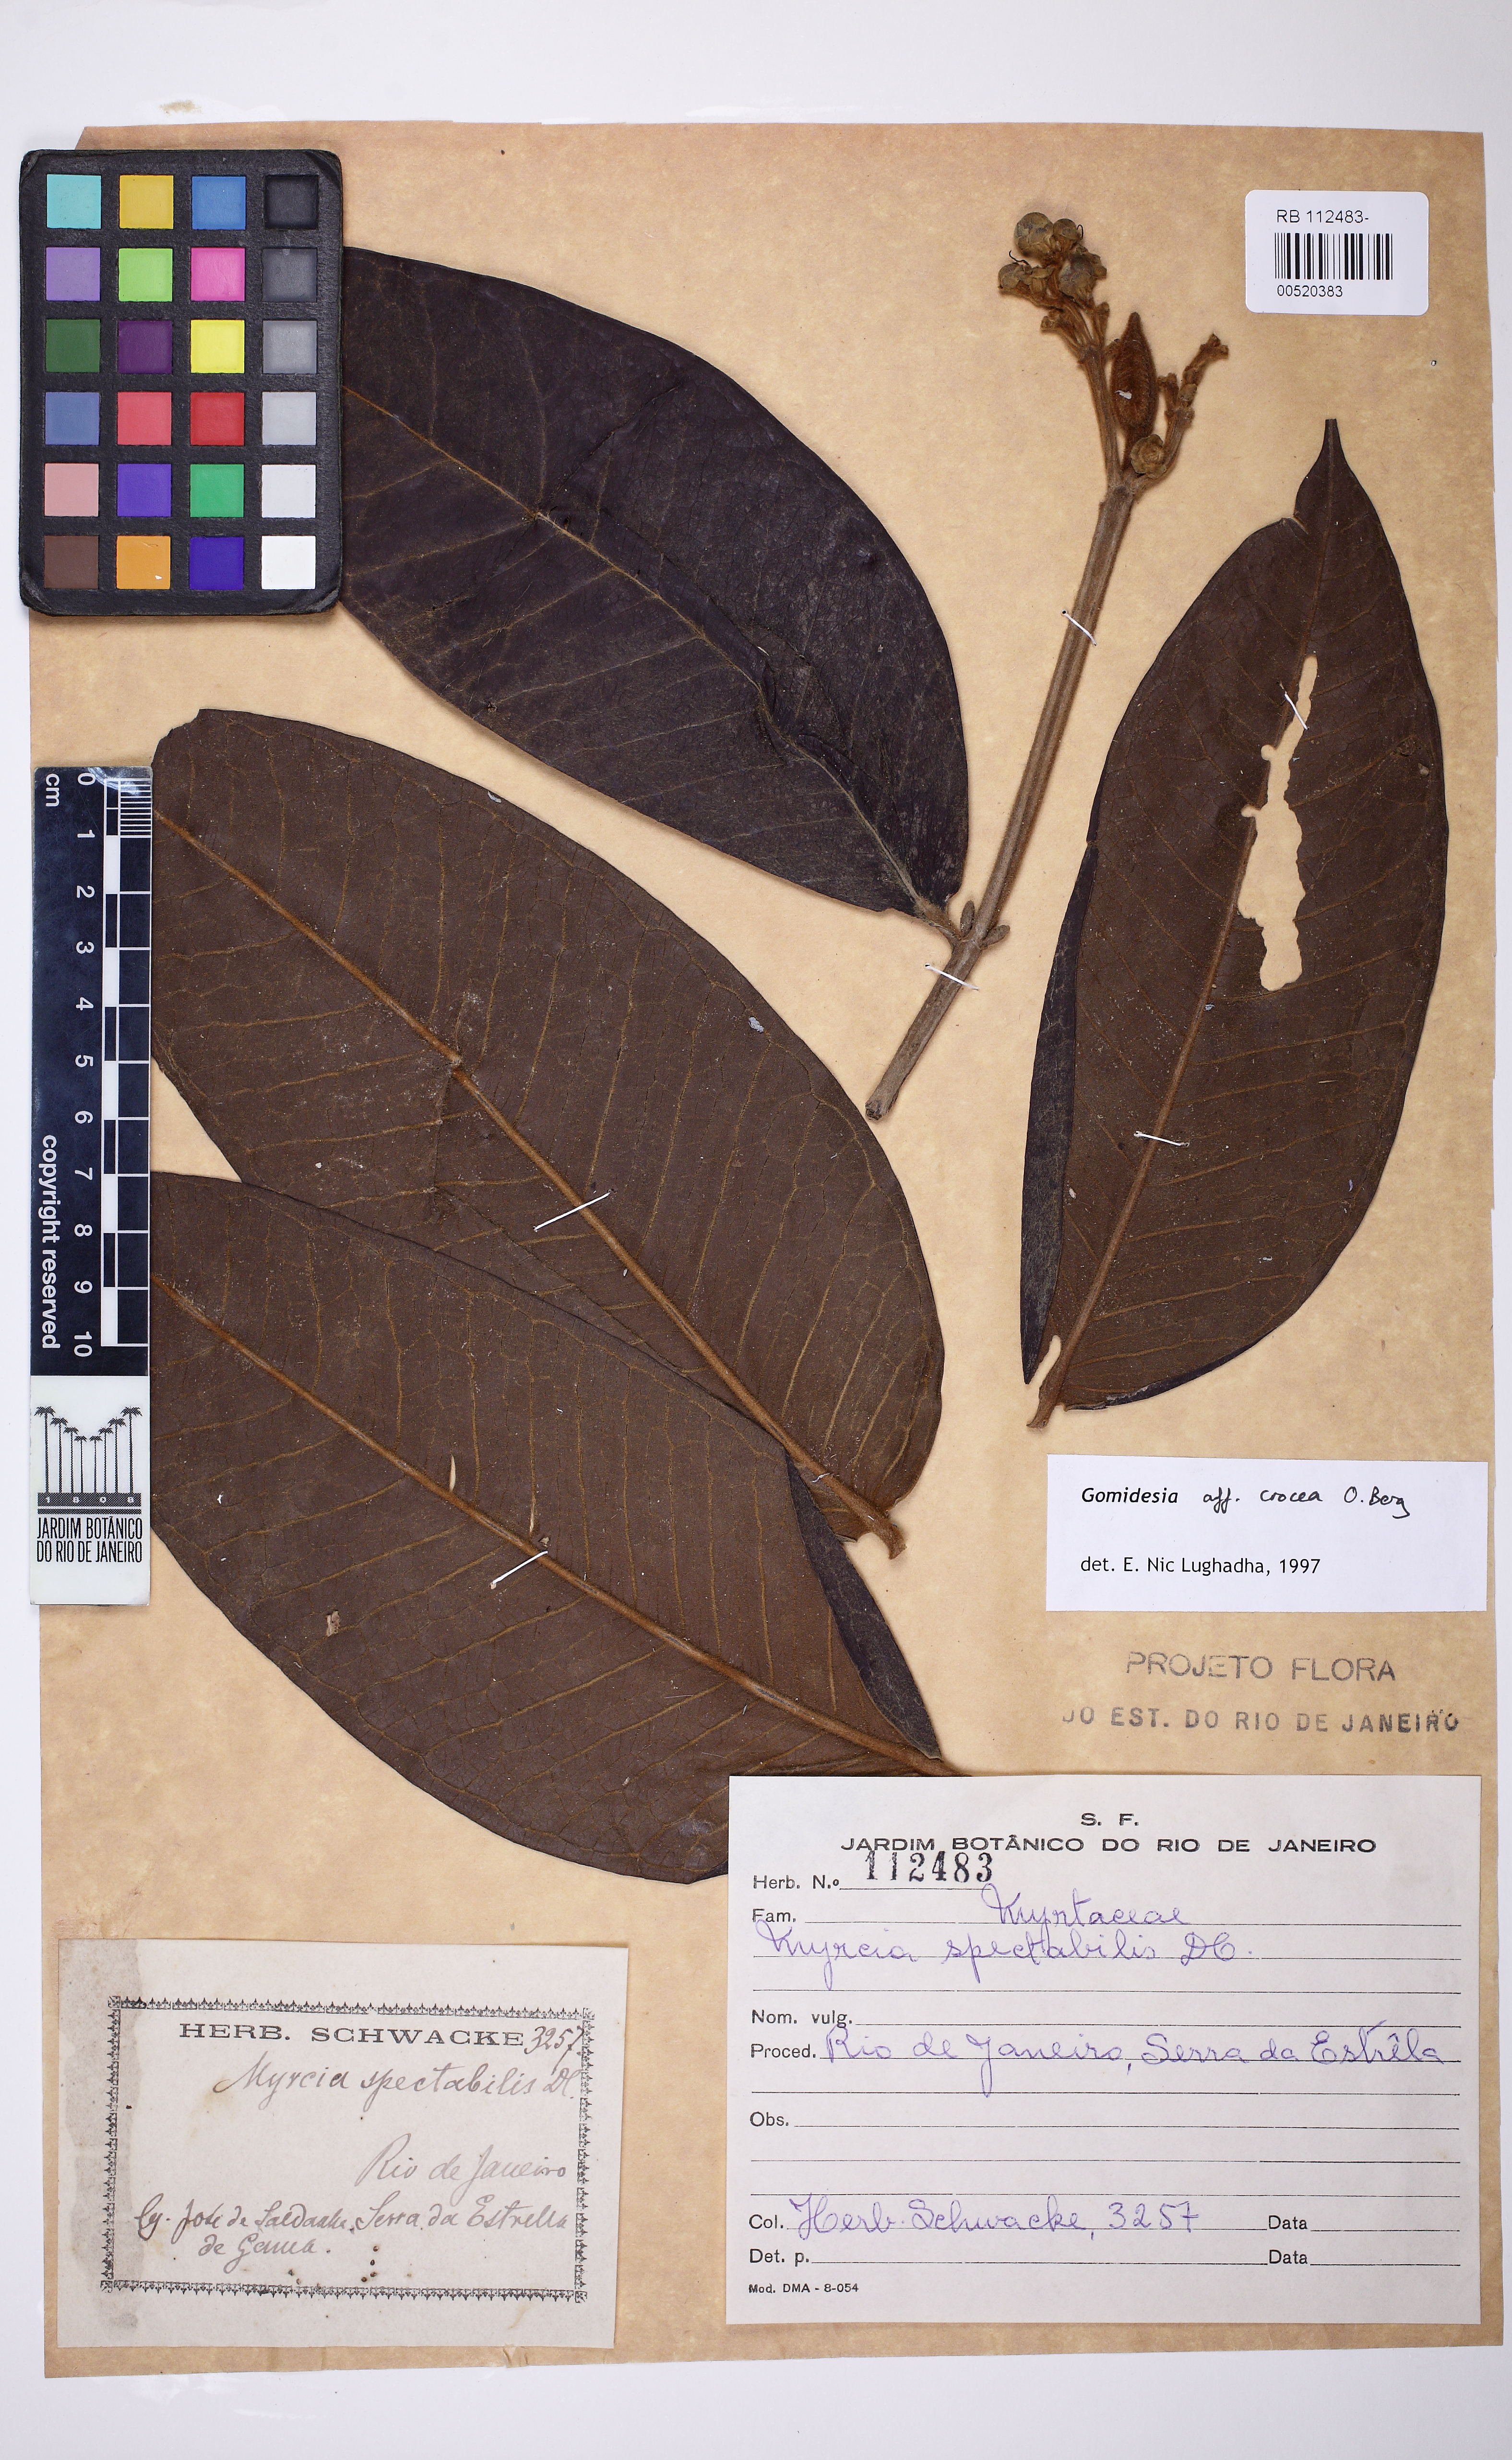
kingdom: Plantae
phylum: Tracheophyta
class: Magnoliopsida
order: Myrtales
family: Myrtaceae
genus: Myrcia
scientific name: Myrcia amplexicaulis
